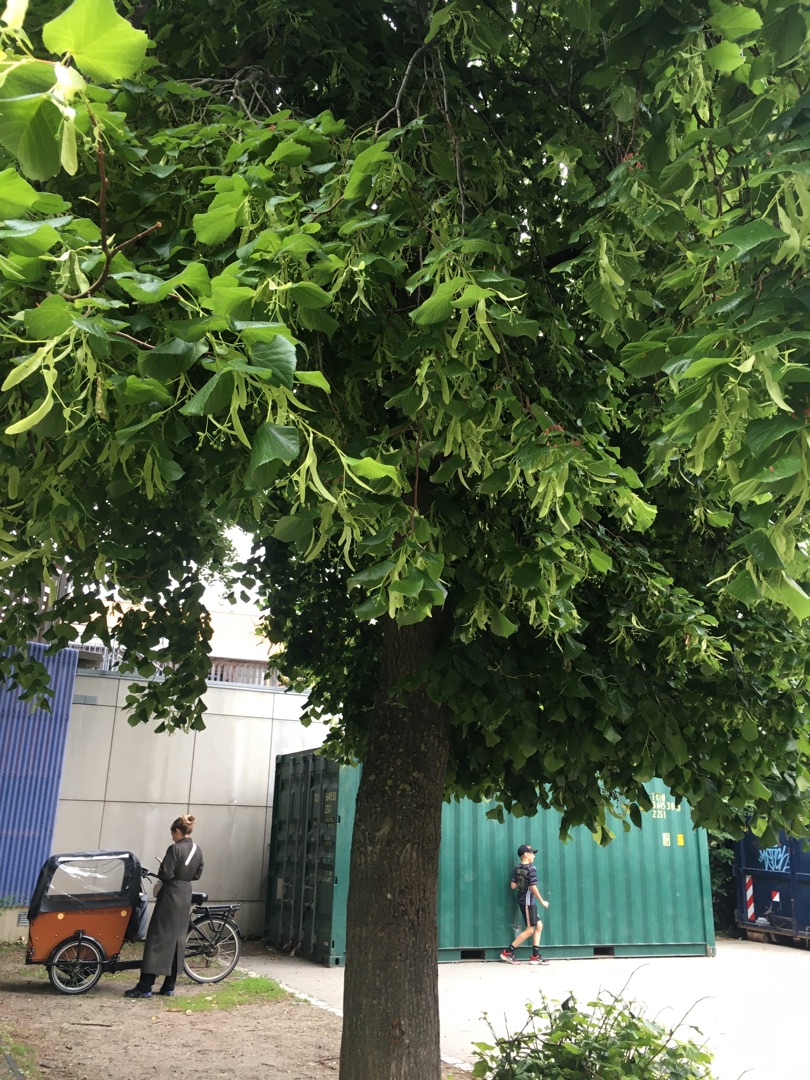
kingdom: Plantae
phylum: Tracheophyta
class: Magnoliopsida
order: Malvales
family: Malvaceae
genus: Tilia
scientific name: Tilia
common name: Lindeslægten
